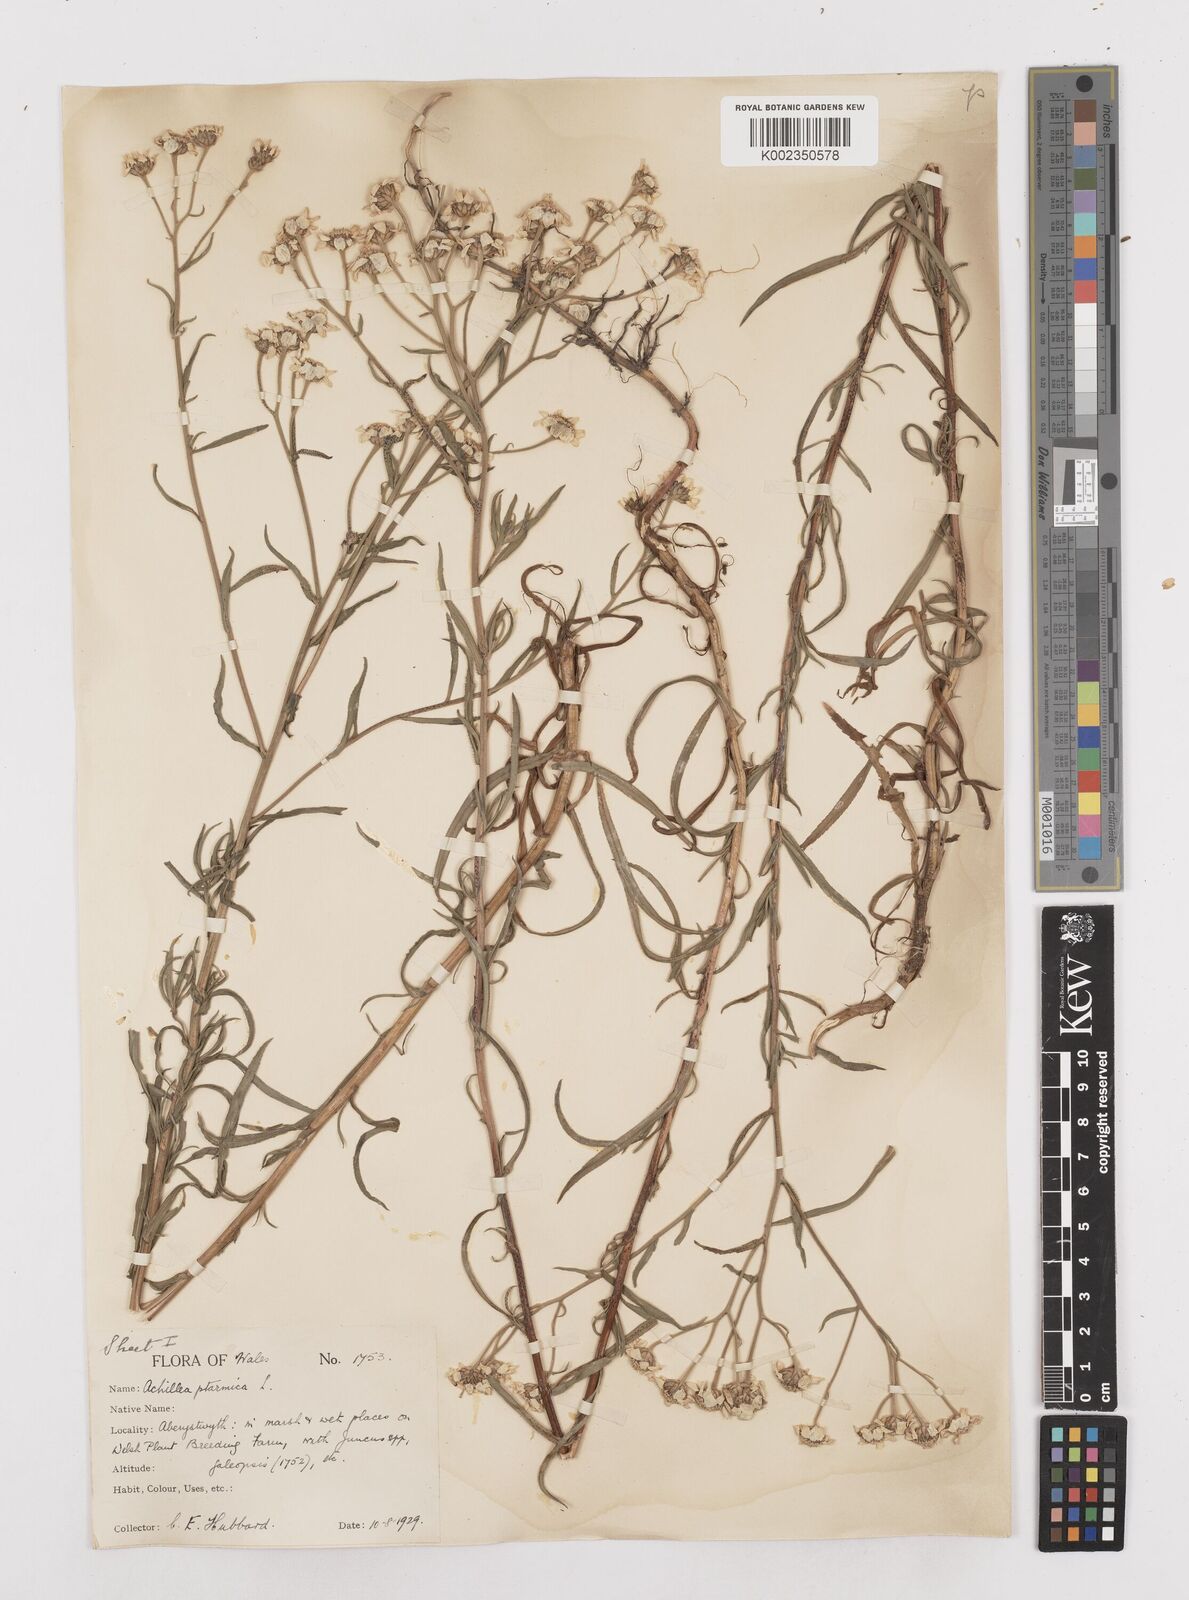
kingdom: Plantae
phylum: Tracheophyta
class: Magnoliopsida
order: Asterales
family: Asteraceae
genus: Achillea
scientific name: Achillea
